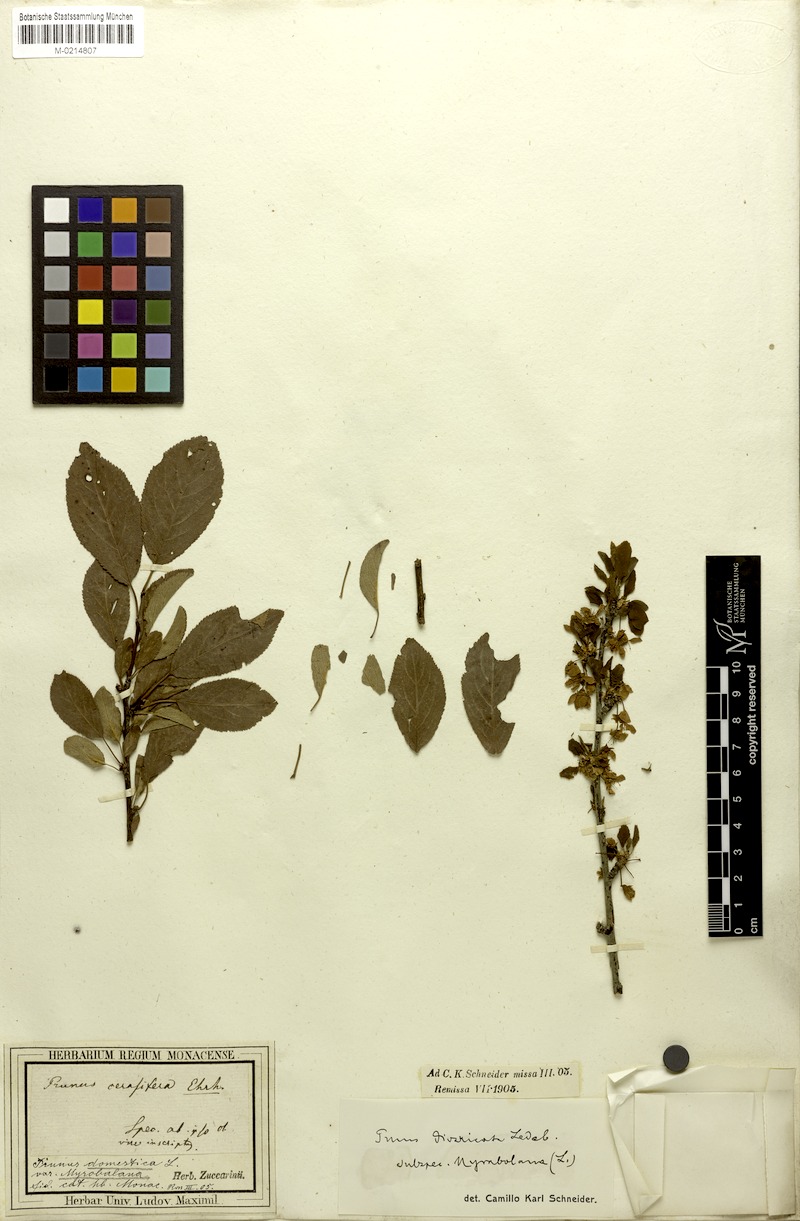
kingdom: Plantae
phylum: Tracheophyta
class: Magnoliopsida
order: Rosales
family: Rosaceae
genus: Prunus
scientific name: Prunus cerasifera
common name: Cherry plum
